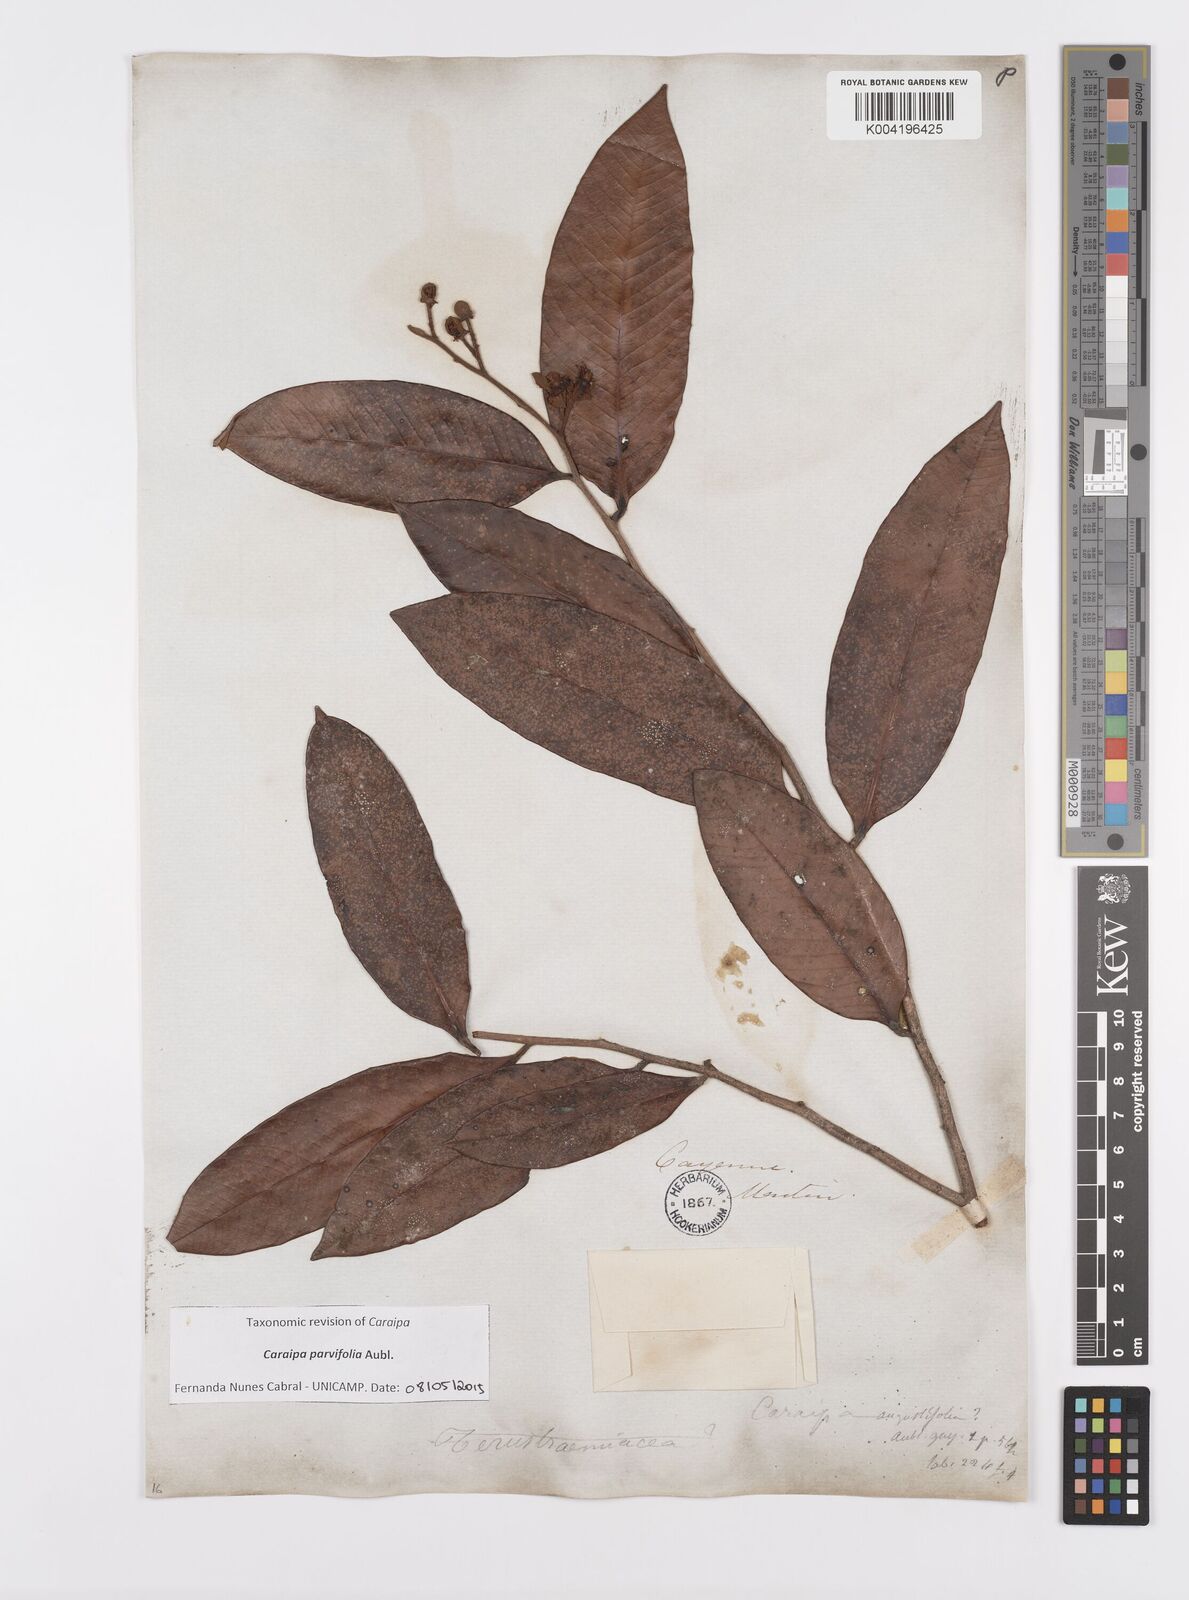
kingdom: Plantae
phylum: Tracheophyta
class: Magnoliopsida
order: Malpighiales
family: Calophyllaceae
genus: Caraipa
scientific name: Caraipa parvifolia
